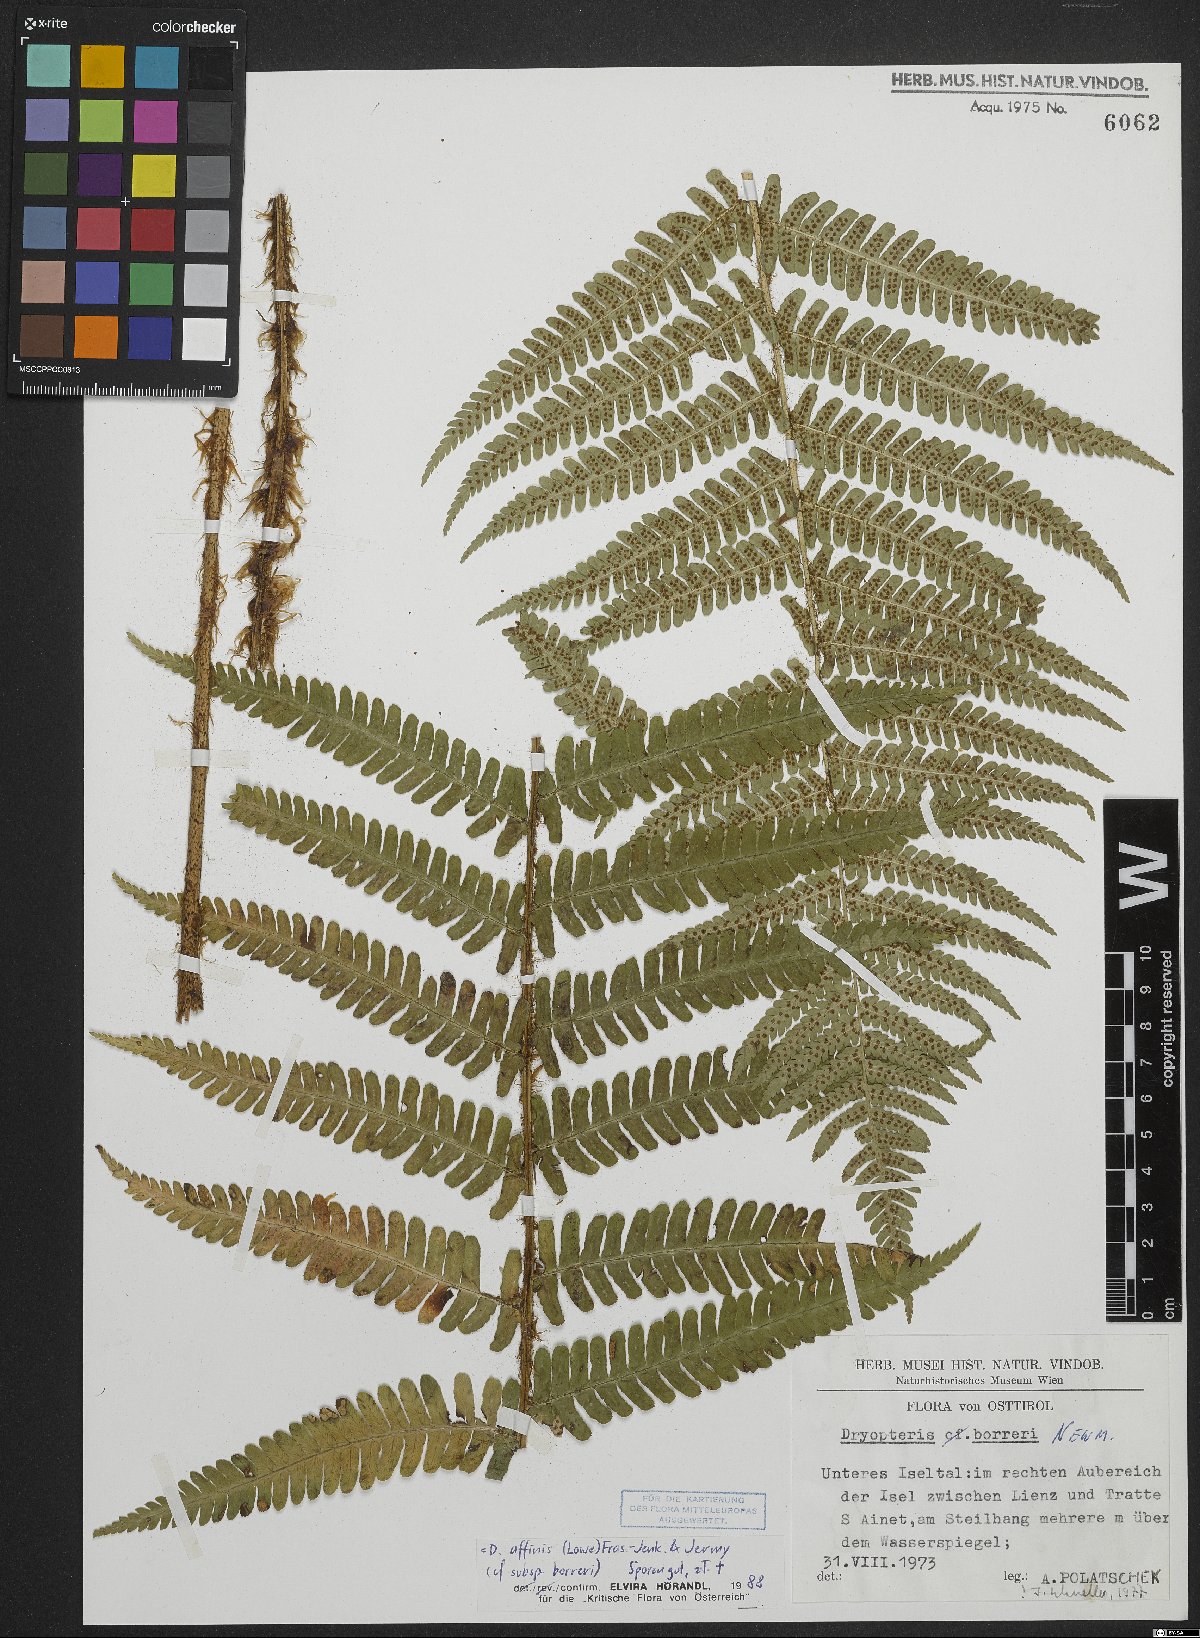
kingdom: Plantae
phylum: Tracheophyta
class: Polypodiopsida
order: Polypodiales
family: Dryopteridaceae
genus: Dryopteris
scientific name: Dryopteris borreri
